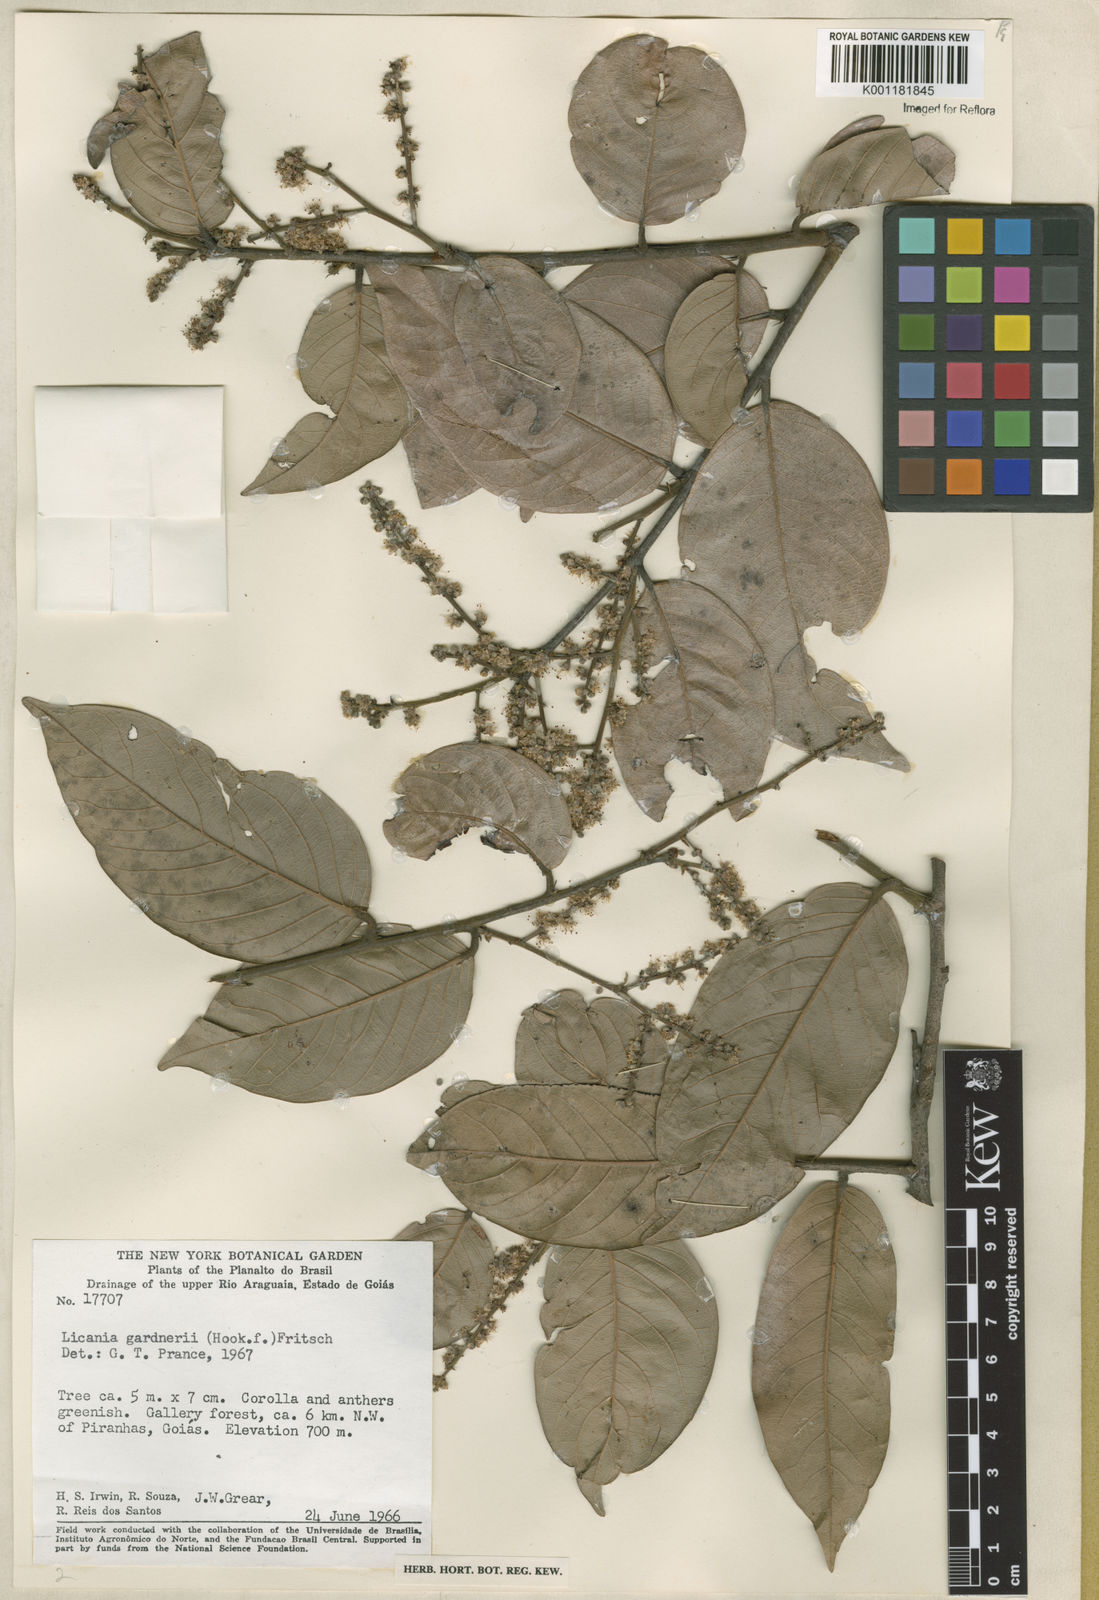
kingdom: Plantae
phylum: Tracheophyta
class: Magnoliopsida
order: Malpighiales
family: Chrysobalanaceae
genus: Leptobalanus
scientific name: Leptobalanus gardneri
